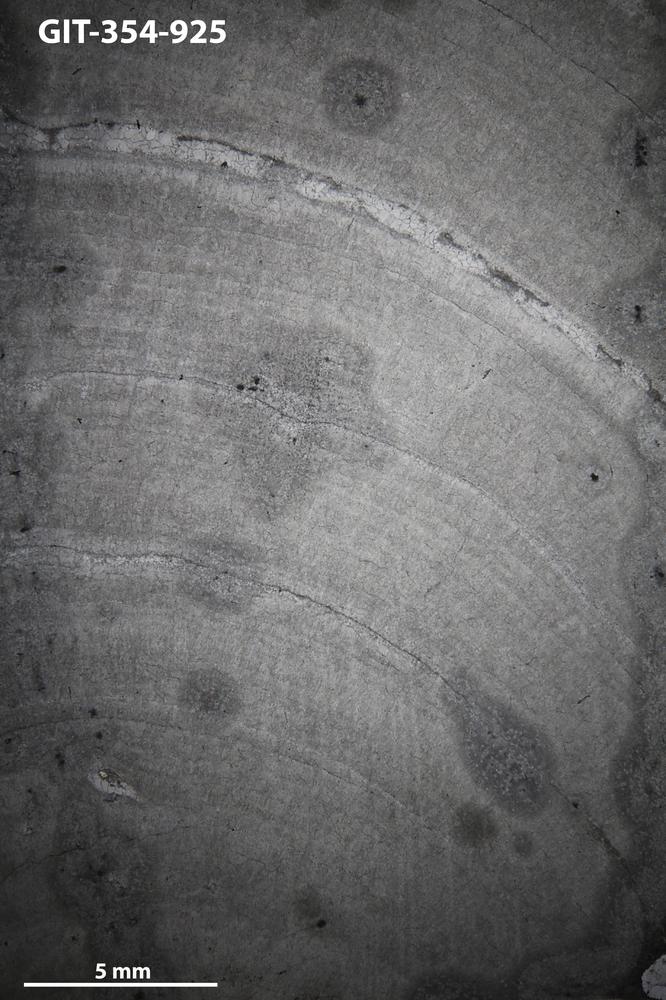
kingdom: Animalia
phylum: Porifera
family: Densastromatidae
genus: Densastroma
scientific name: Densastroma Actinostroma pexisum
